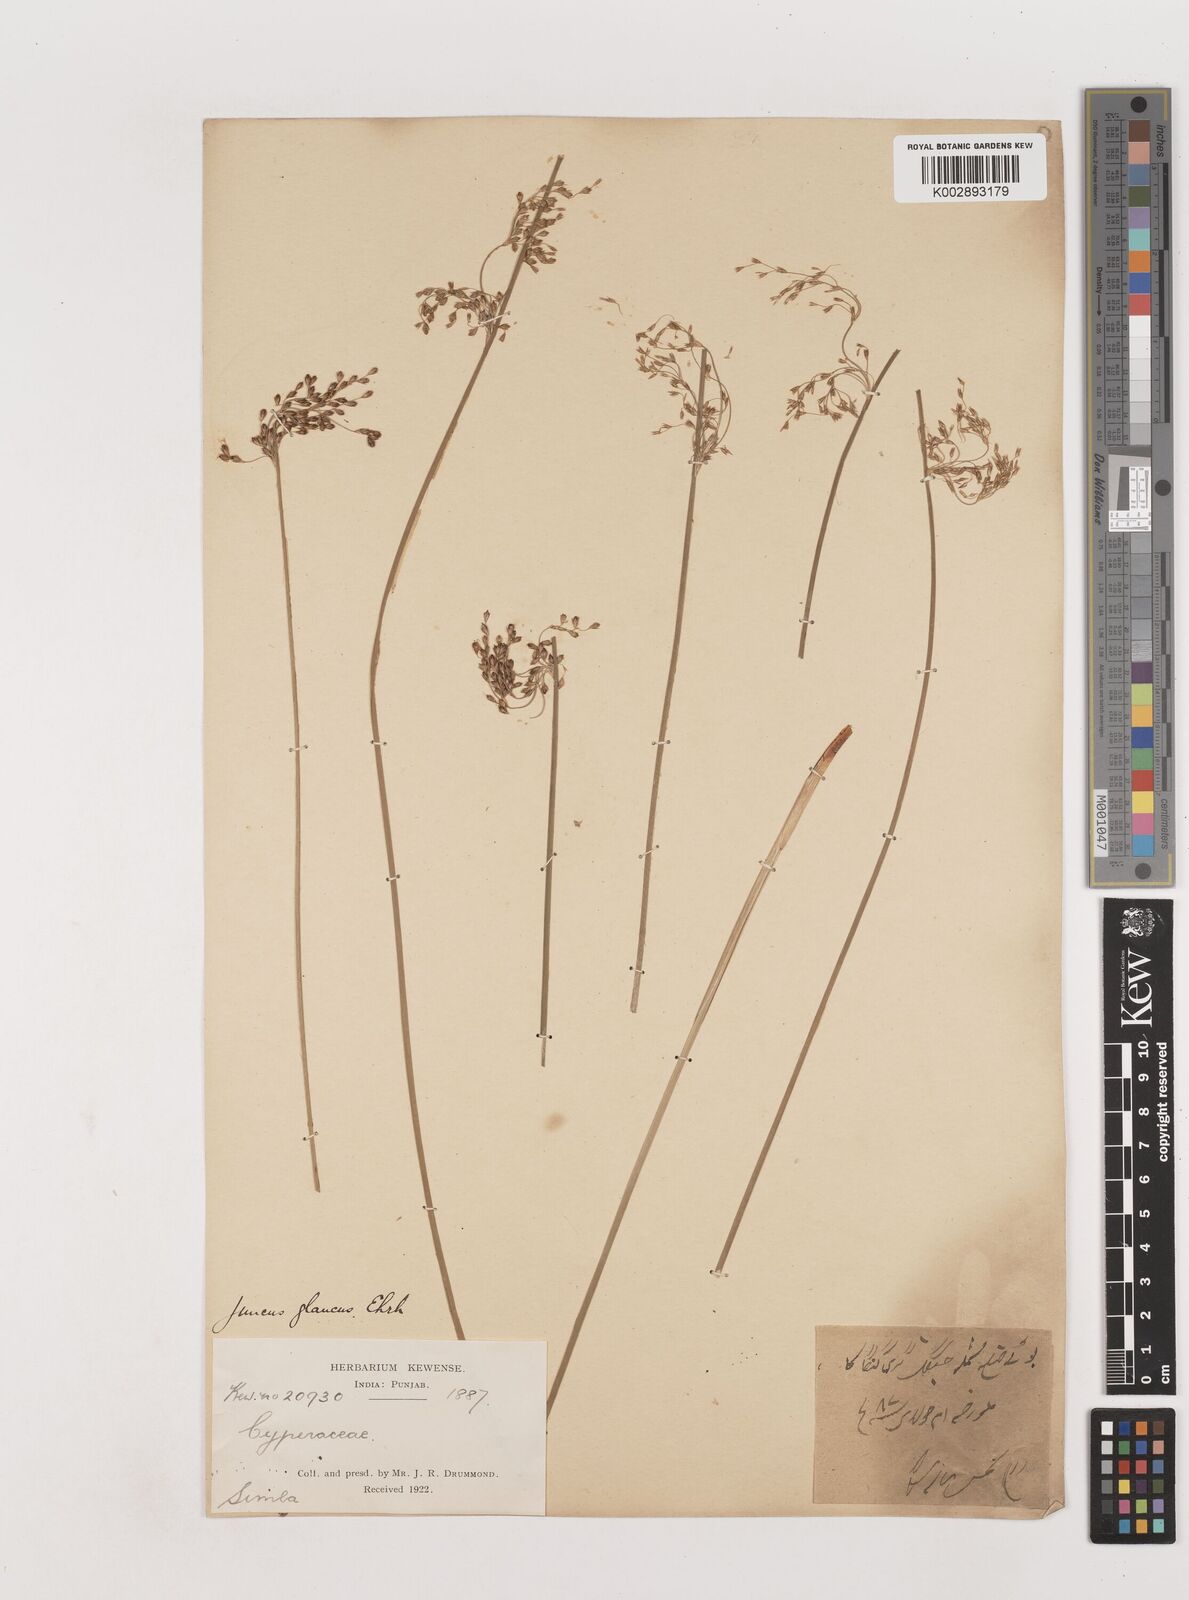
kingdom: Plantae
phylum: Tracheophyta
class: Liliopsida
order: Poales
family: Juncaceae
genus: Juncus
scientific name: Juncus inflexus
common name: Hard rush
